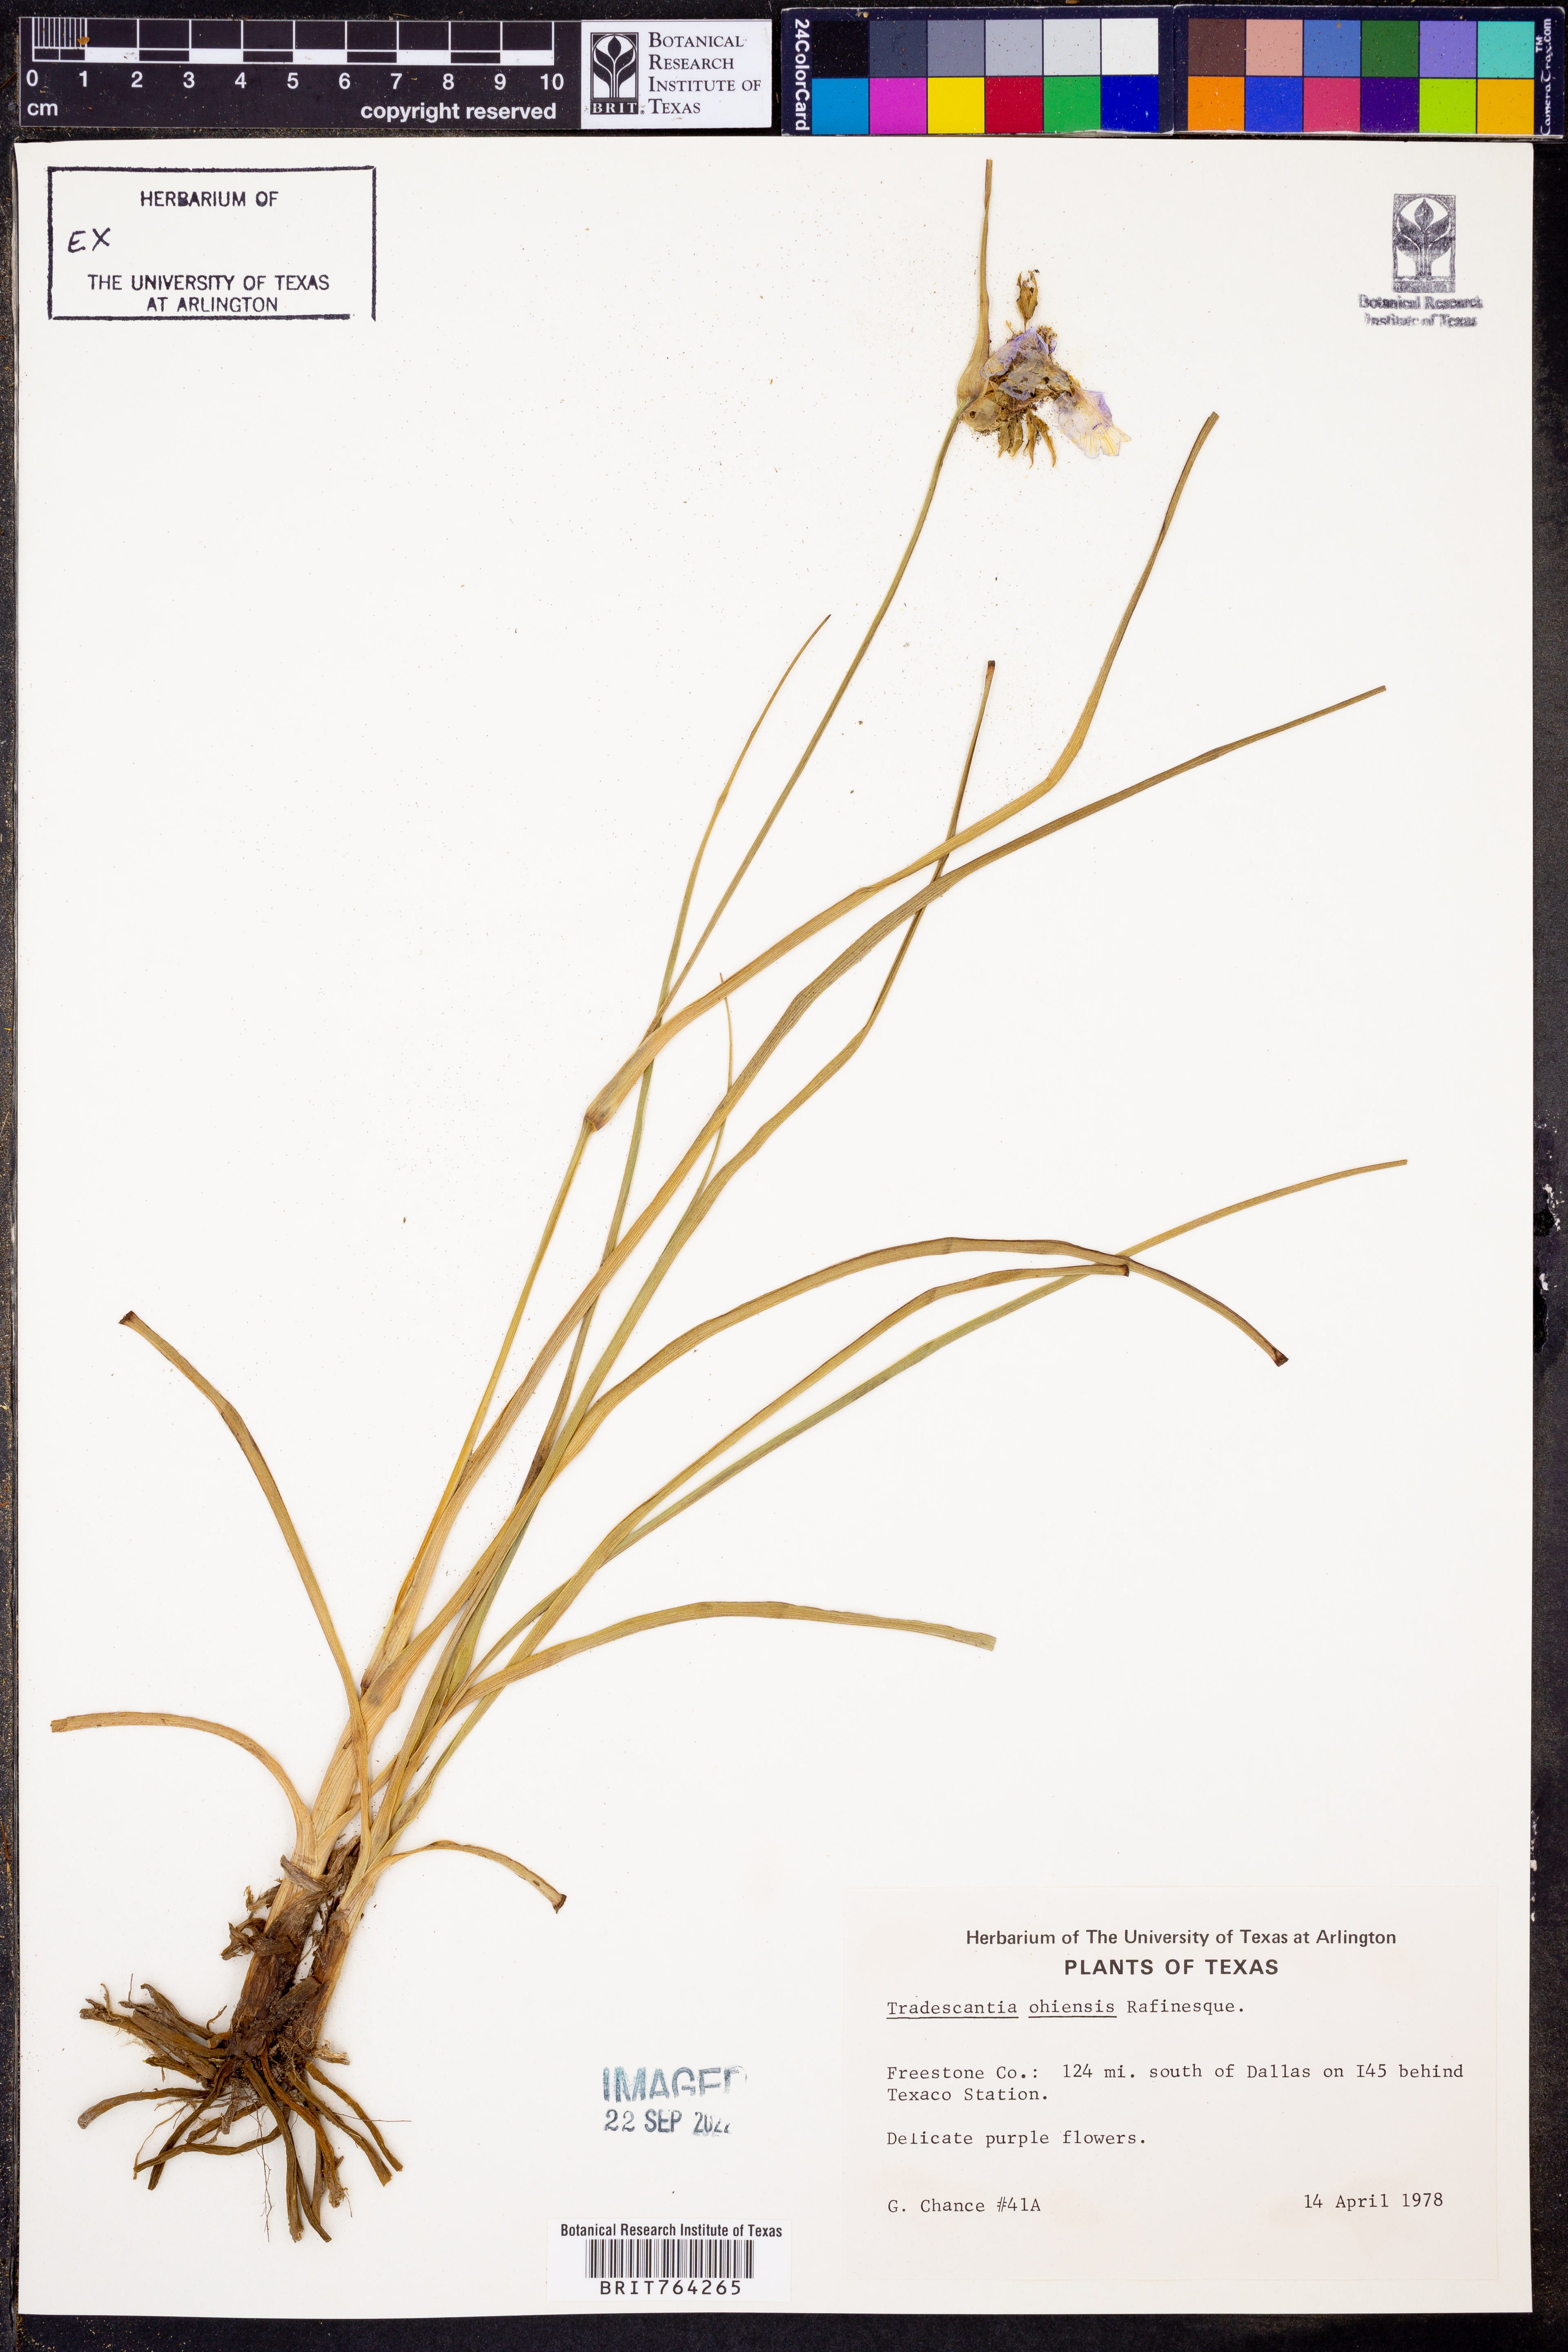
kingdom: Plantae
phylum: Tracheophyta
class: Liliopsida
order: Commelinales
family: Commelinaceae
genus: Tradescantia
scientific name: Tradescantia ohiensis
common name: Ohio spiderwort
